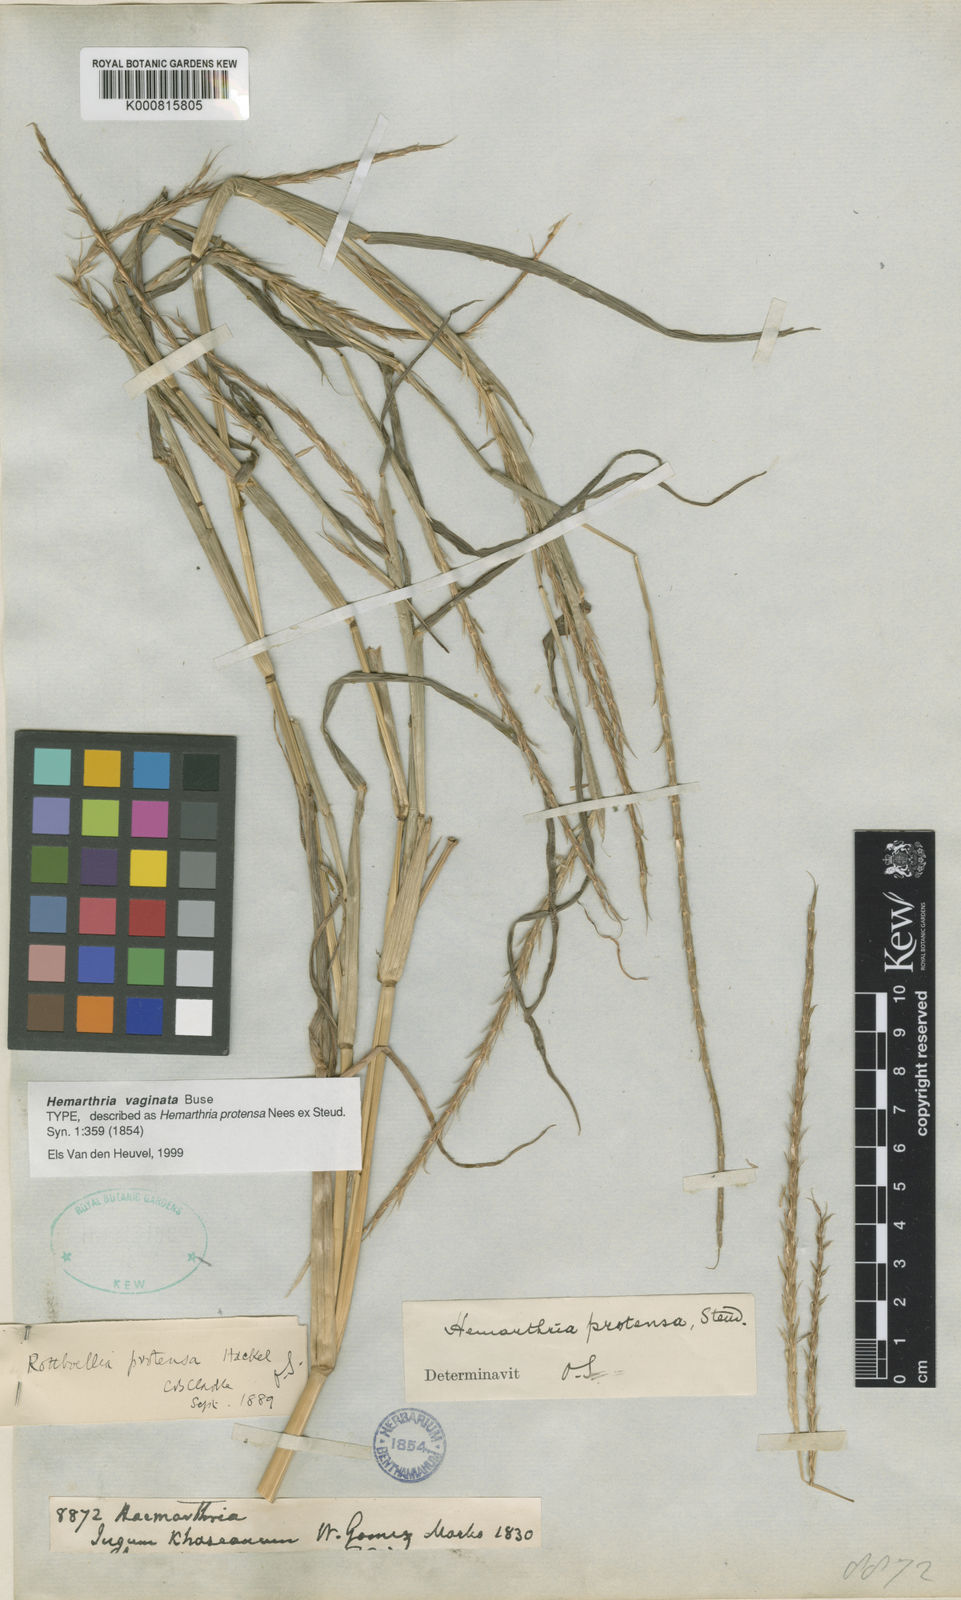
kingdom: Plantae
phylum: Tracheophyta
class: Liliopsida
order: Poales
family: Poaceae
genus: Hemarthria
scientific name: Hemarthria
